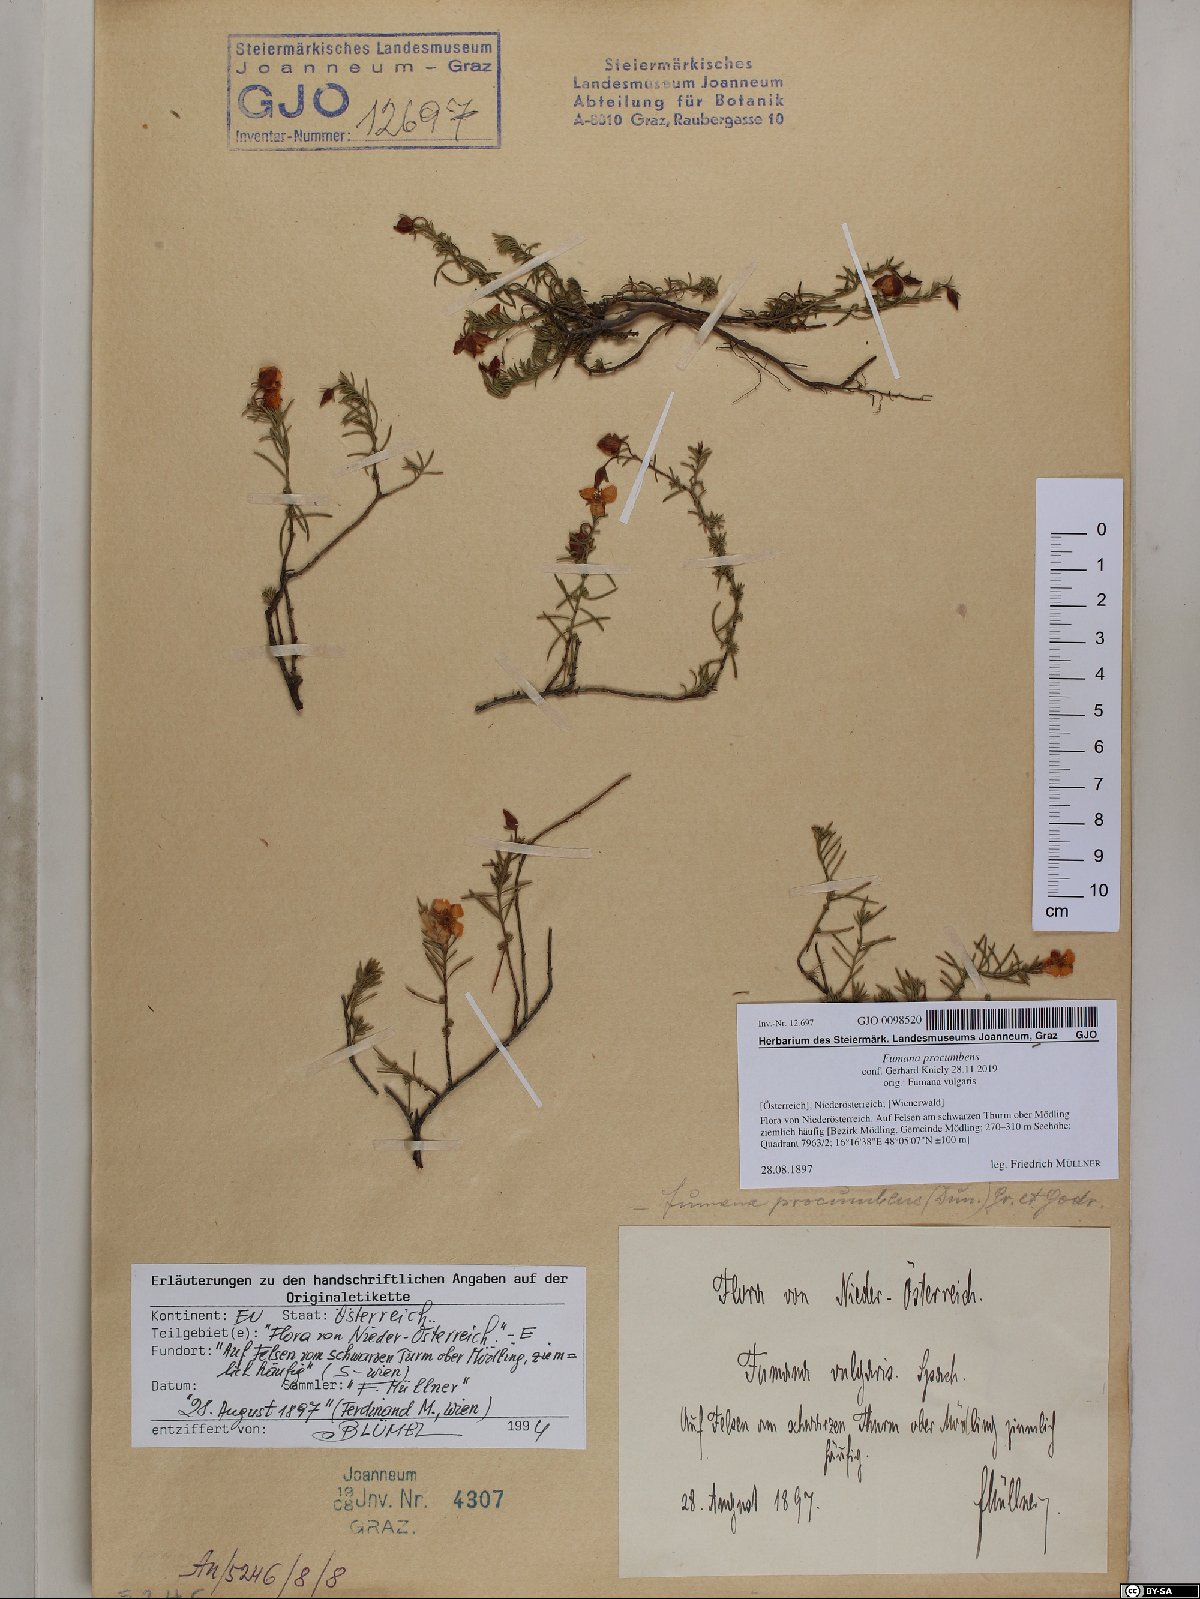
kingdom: Plantae
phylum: Tracheophyta
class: Magnoliopsida
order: Malvales
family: Cistaceae
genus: Fumana
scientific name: Fumana procumbens
